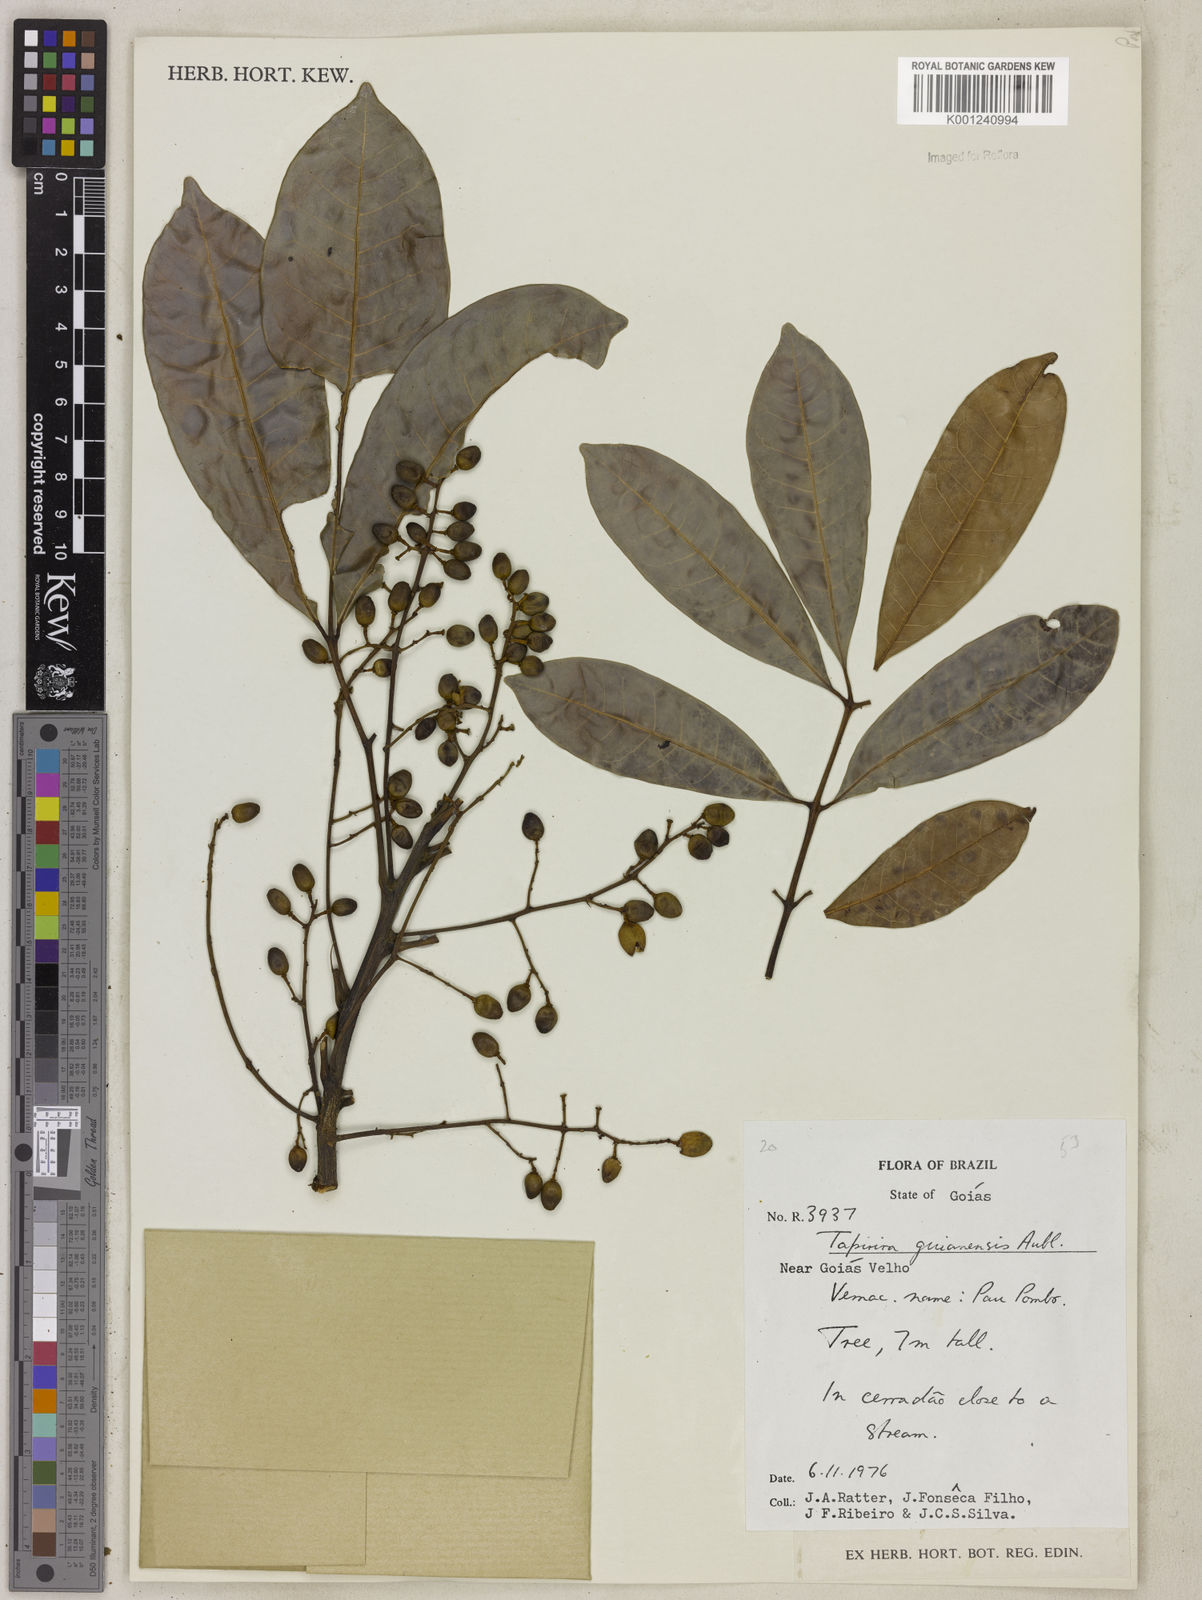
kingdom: Plantae
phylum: Tracheophyta
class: Magnoliopsida
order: Sapindales
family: Anacardiaceae
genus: Tapirira
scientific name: Tapirira guianensis
